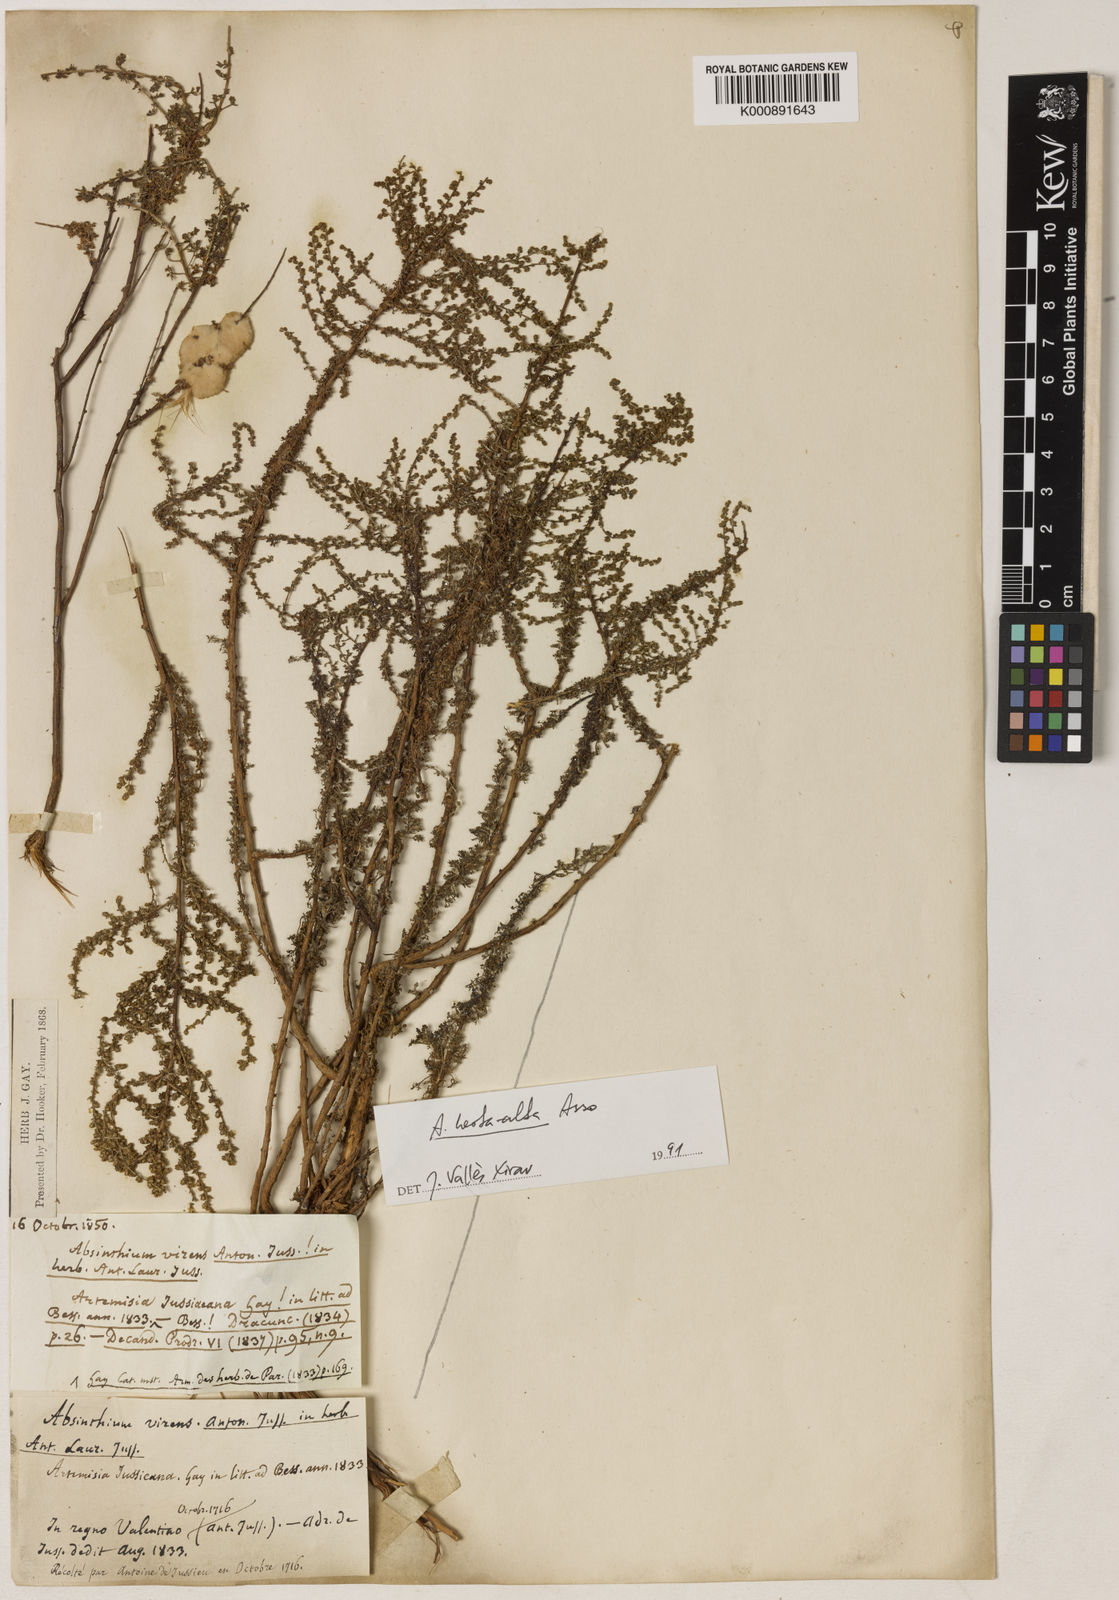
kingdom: Plantae
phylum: Tracheophyta
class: Magnoliopsida
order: Asterales
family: Asteraceae
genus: Artemisia
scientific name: Artemisia campestris
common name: Field wormwood
